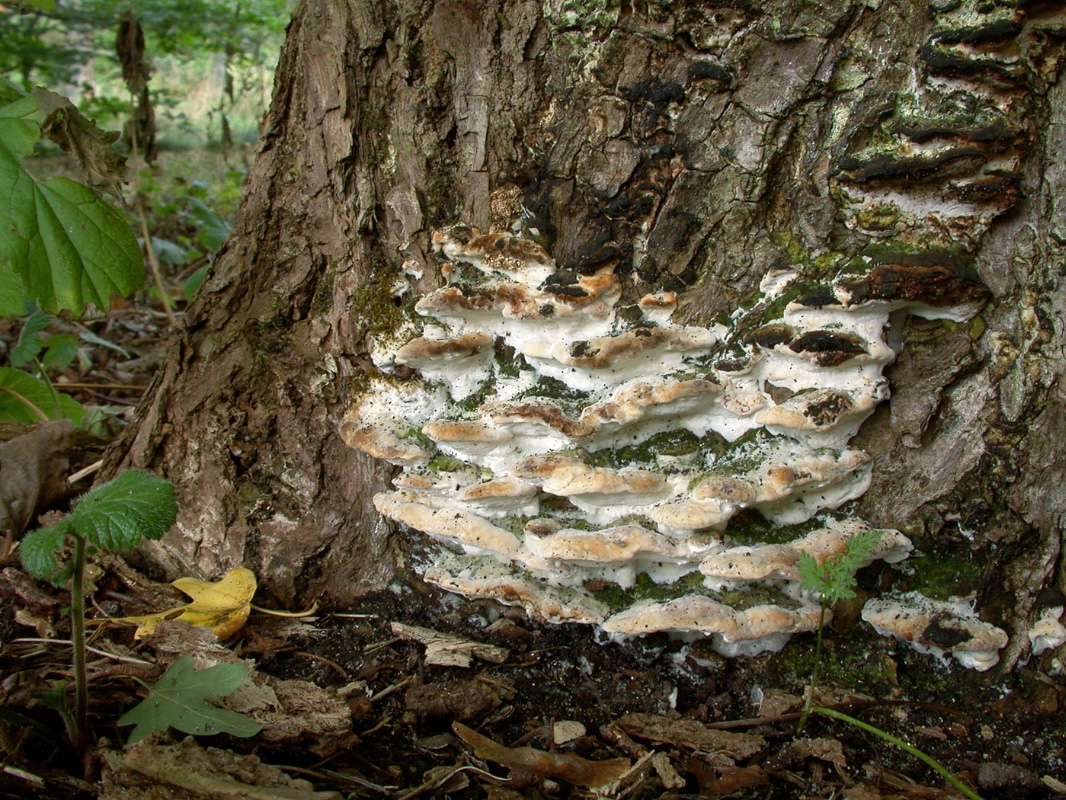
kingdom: Fungi
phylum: Basidiomycota
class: Agaricomycetes
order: Hymenochaetales
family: Oxyporaceae
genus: Oxyporus
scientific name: Oxyporus populinus
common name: sammenvokset trylleporesvamp
